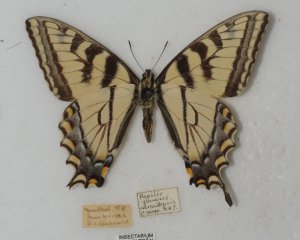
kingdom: Animalia
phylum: Arthropoda
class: Insecta
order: Lepidoptera
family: Papilionidae
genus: Pterourus
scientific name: Pterourus canadensis
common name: Canadian Tiger Swallowtail
